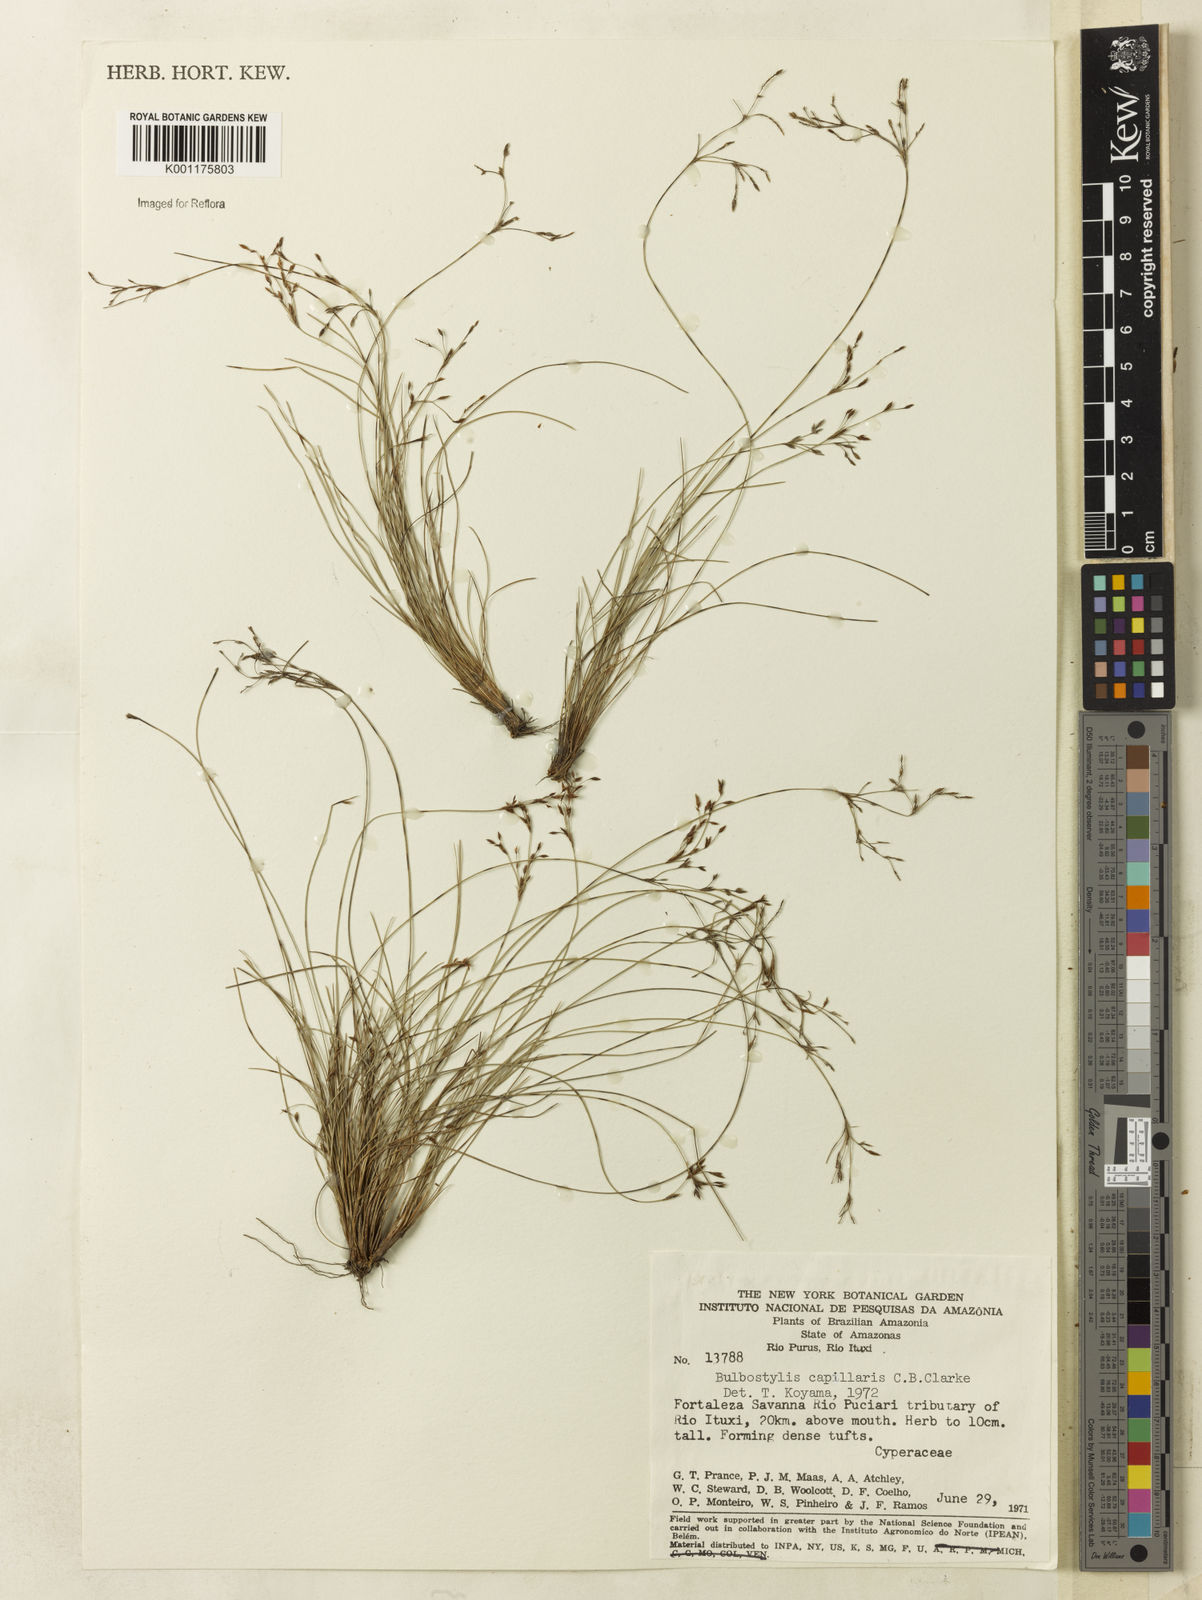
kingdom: Plantae
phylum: Tracheophyta
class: Liliopsida
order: Poales
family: Cyperaceae
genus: Bulbostylis
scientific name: Bulbostylis capillaris
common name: Densetuft hairsedge
